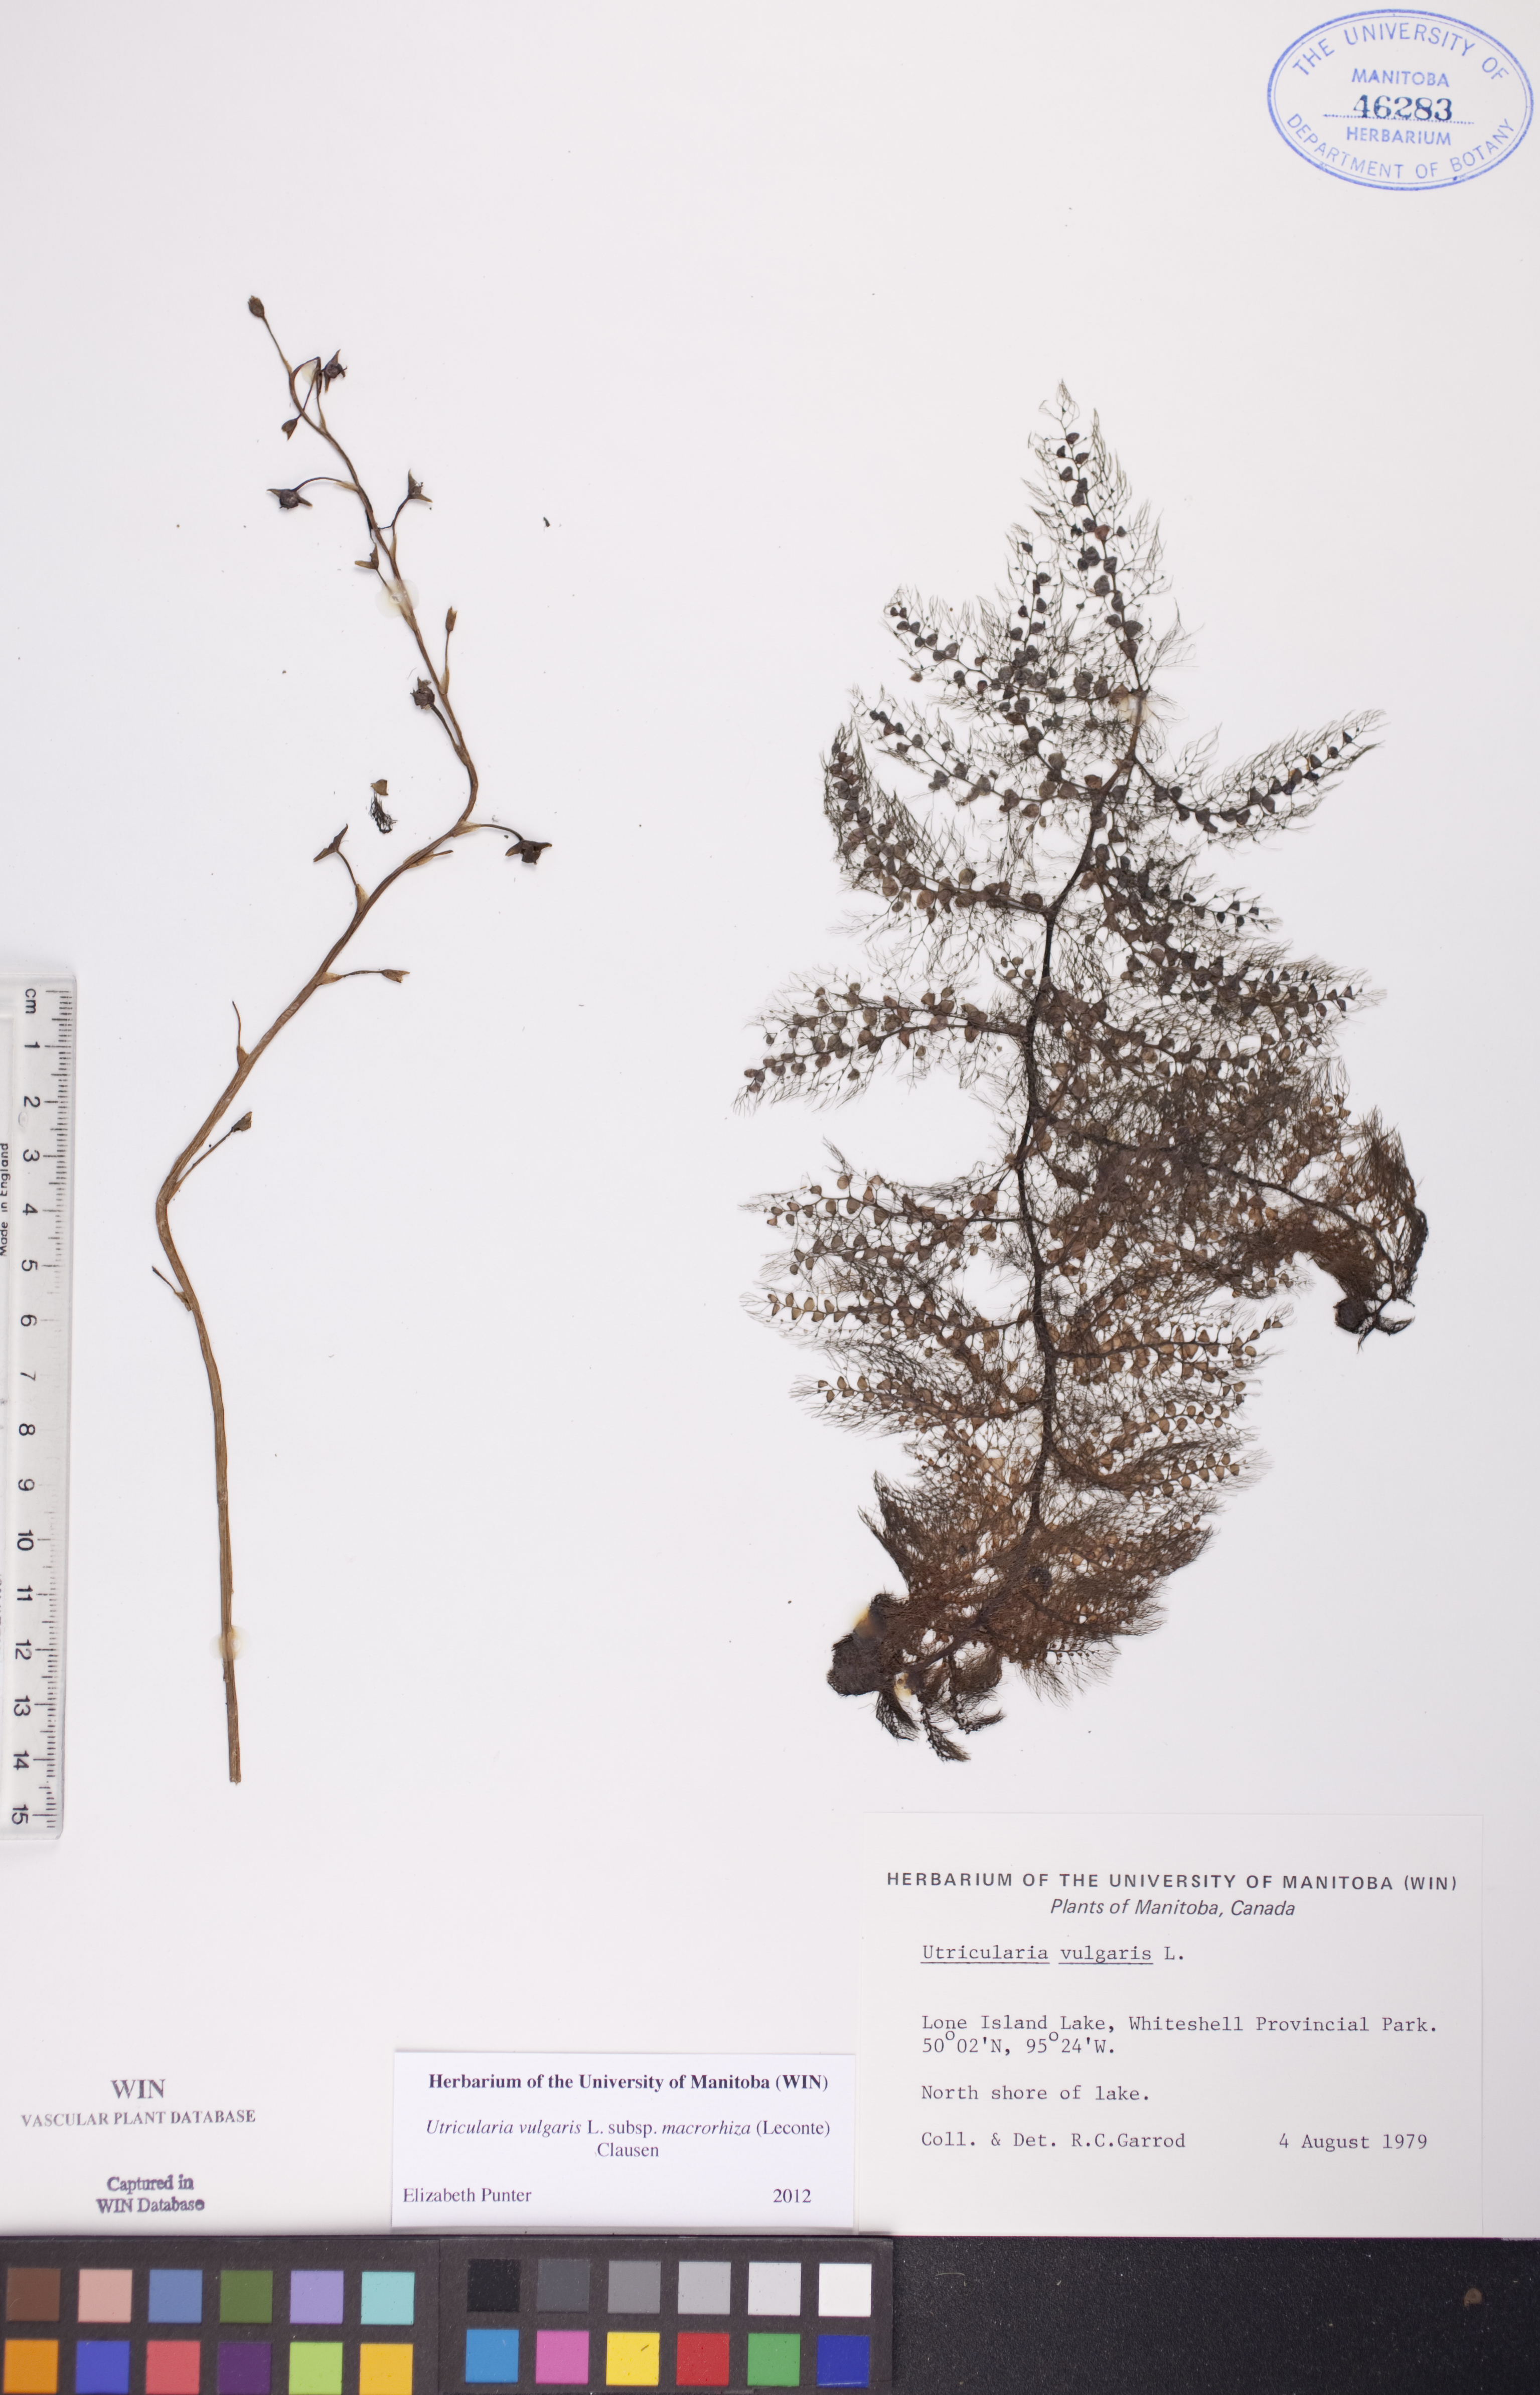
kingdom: Plantae
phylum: Tracheophyta
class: Magnoliopsida
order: Lamiales
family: Lentibulariaceae
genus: Utricularia
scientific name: Utricularia macrorhiza
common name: Common bladderwort
